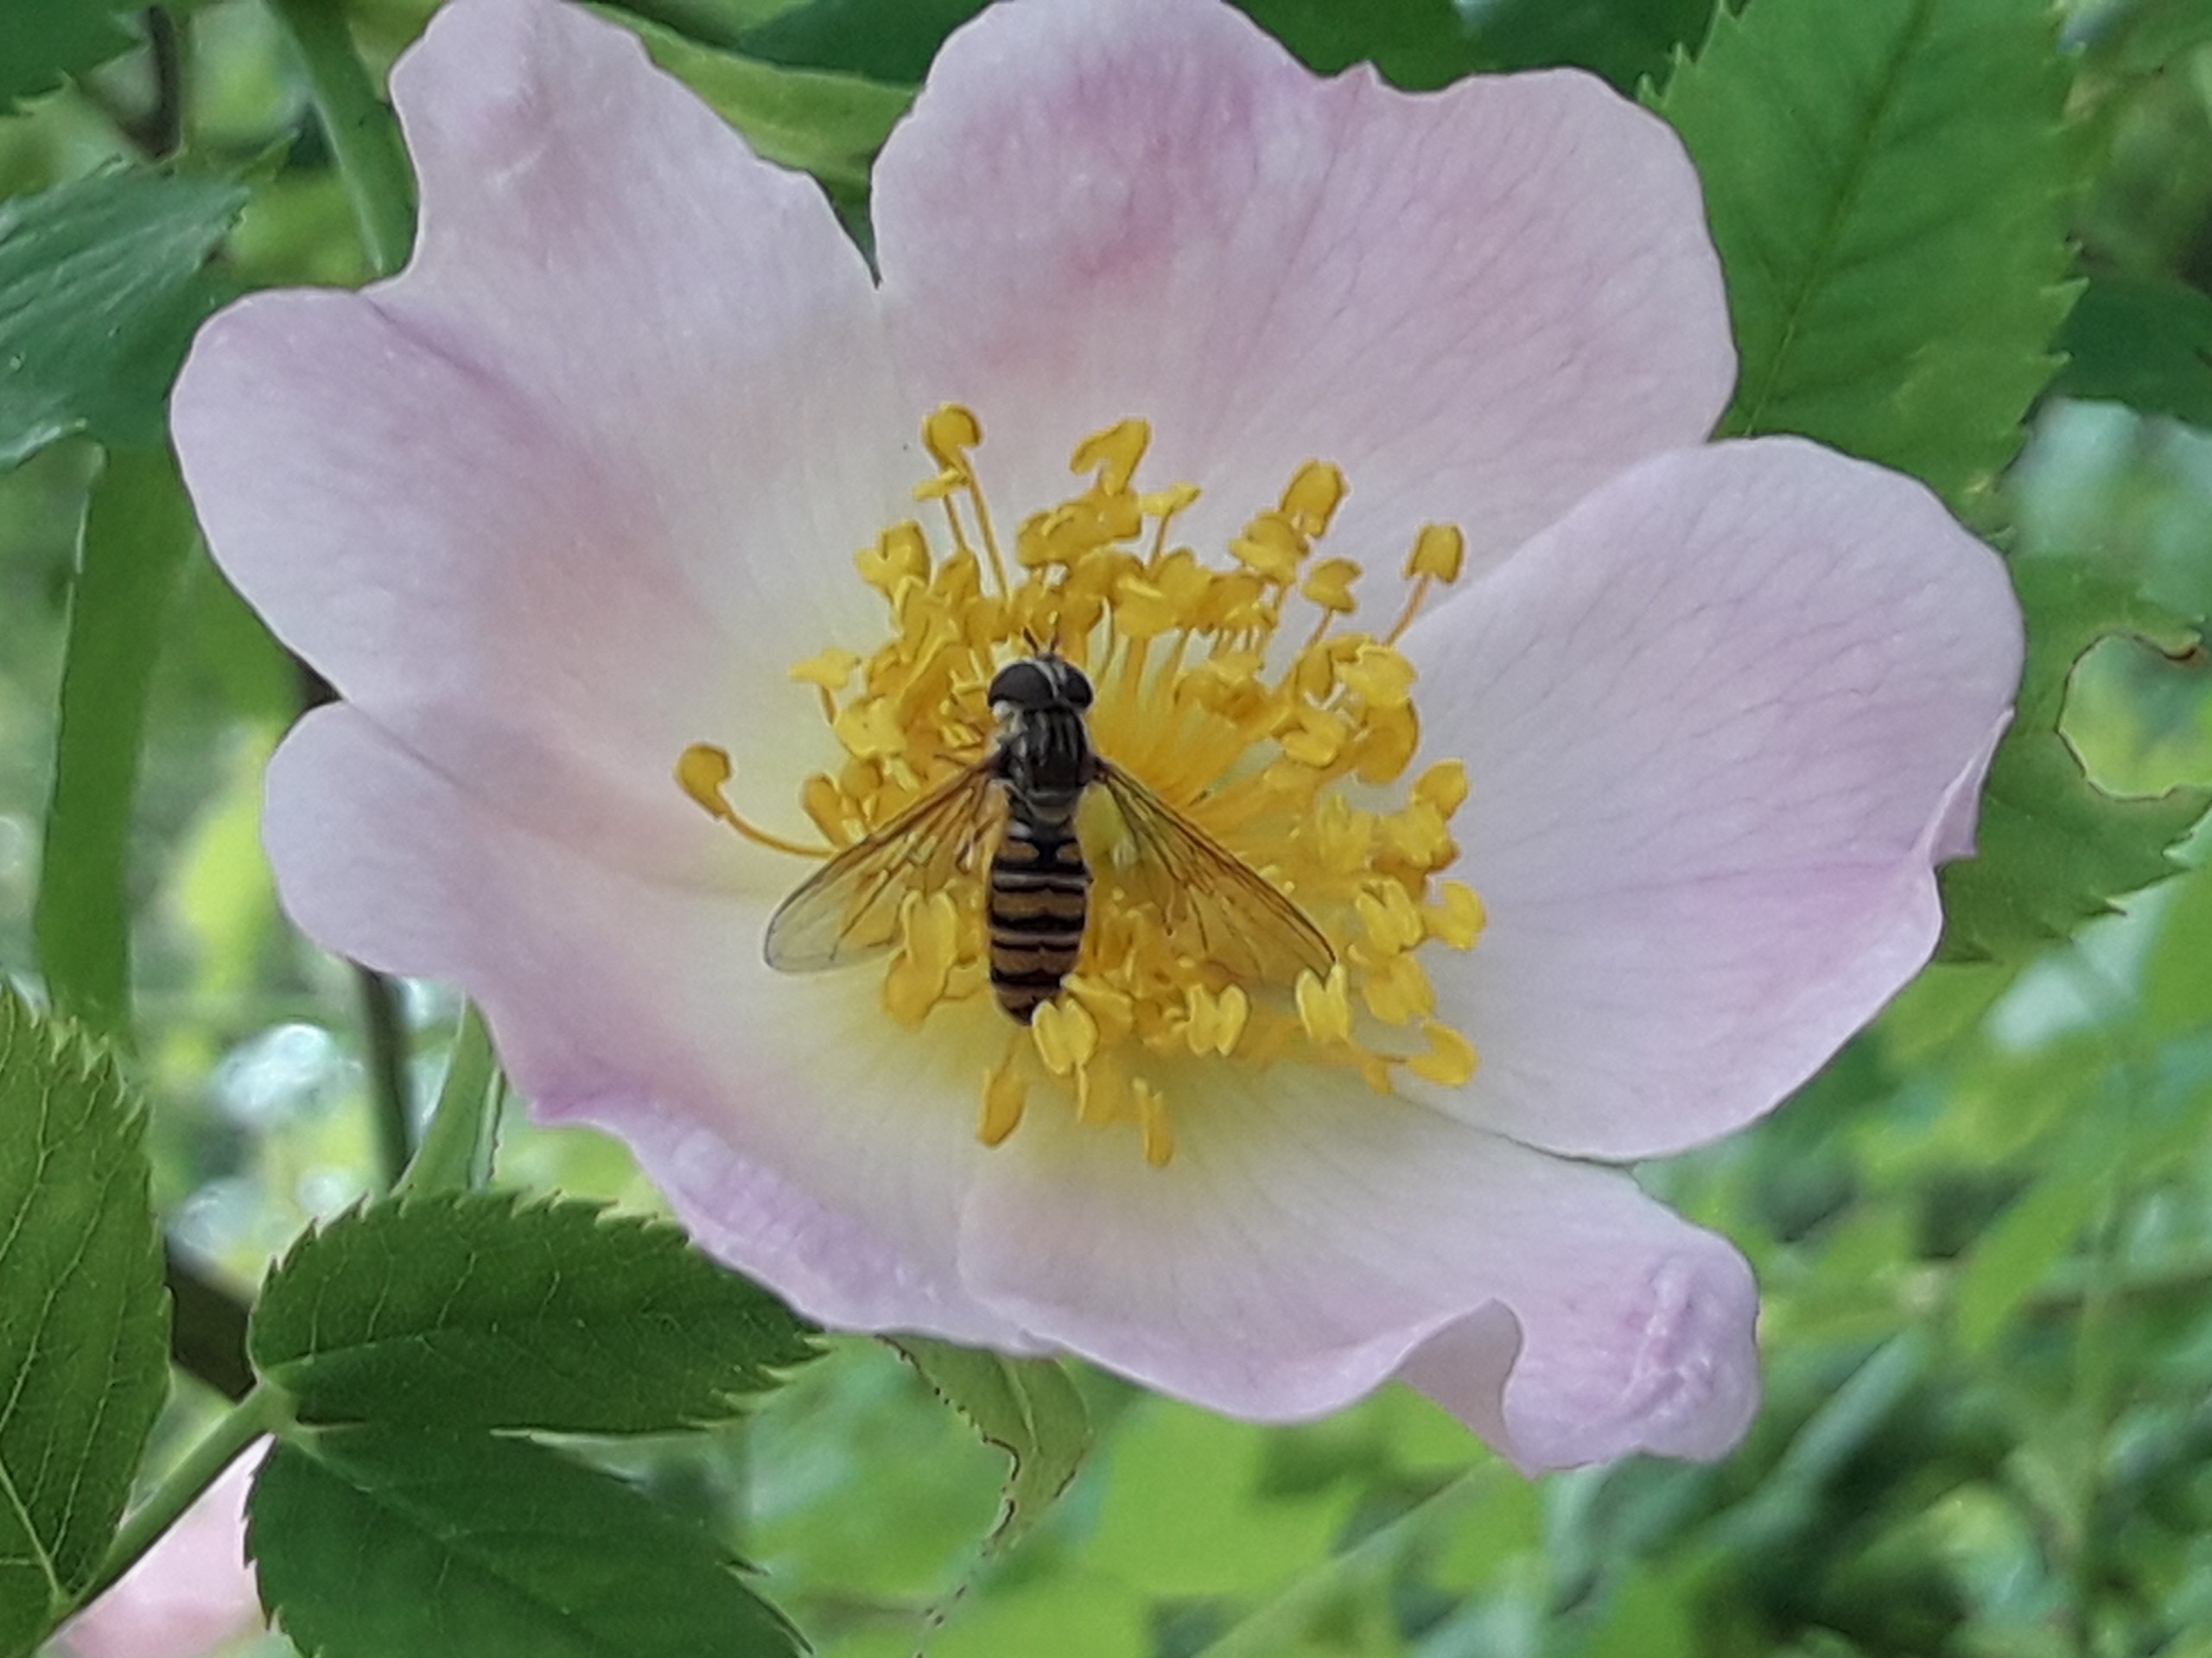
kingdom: Animalia
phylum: Arthropoda
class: Insecta
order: Diptera
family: Syrphidae
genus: Episyrphus
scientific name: Episyrphus balteatus
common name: Dobbeltbåndet svirreflue
